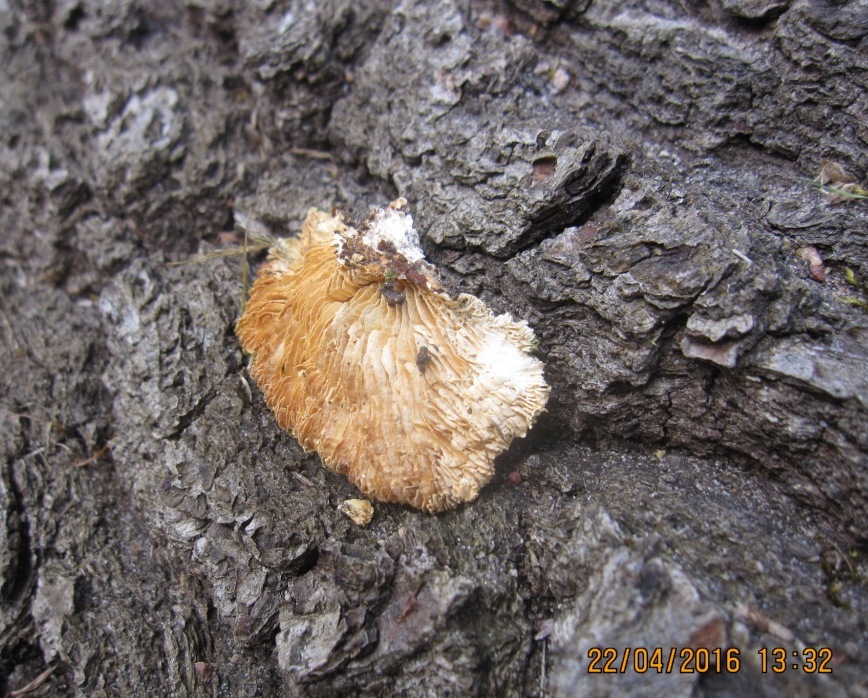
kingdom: Fungi
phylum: Basidiomycota
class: Agaricomycetes
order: Polyporales
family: Polyporaceae
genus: Lenzites
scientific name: Lenzites betulinus
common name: birke-læderporesvamp
